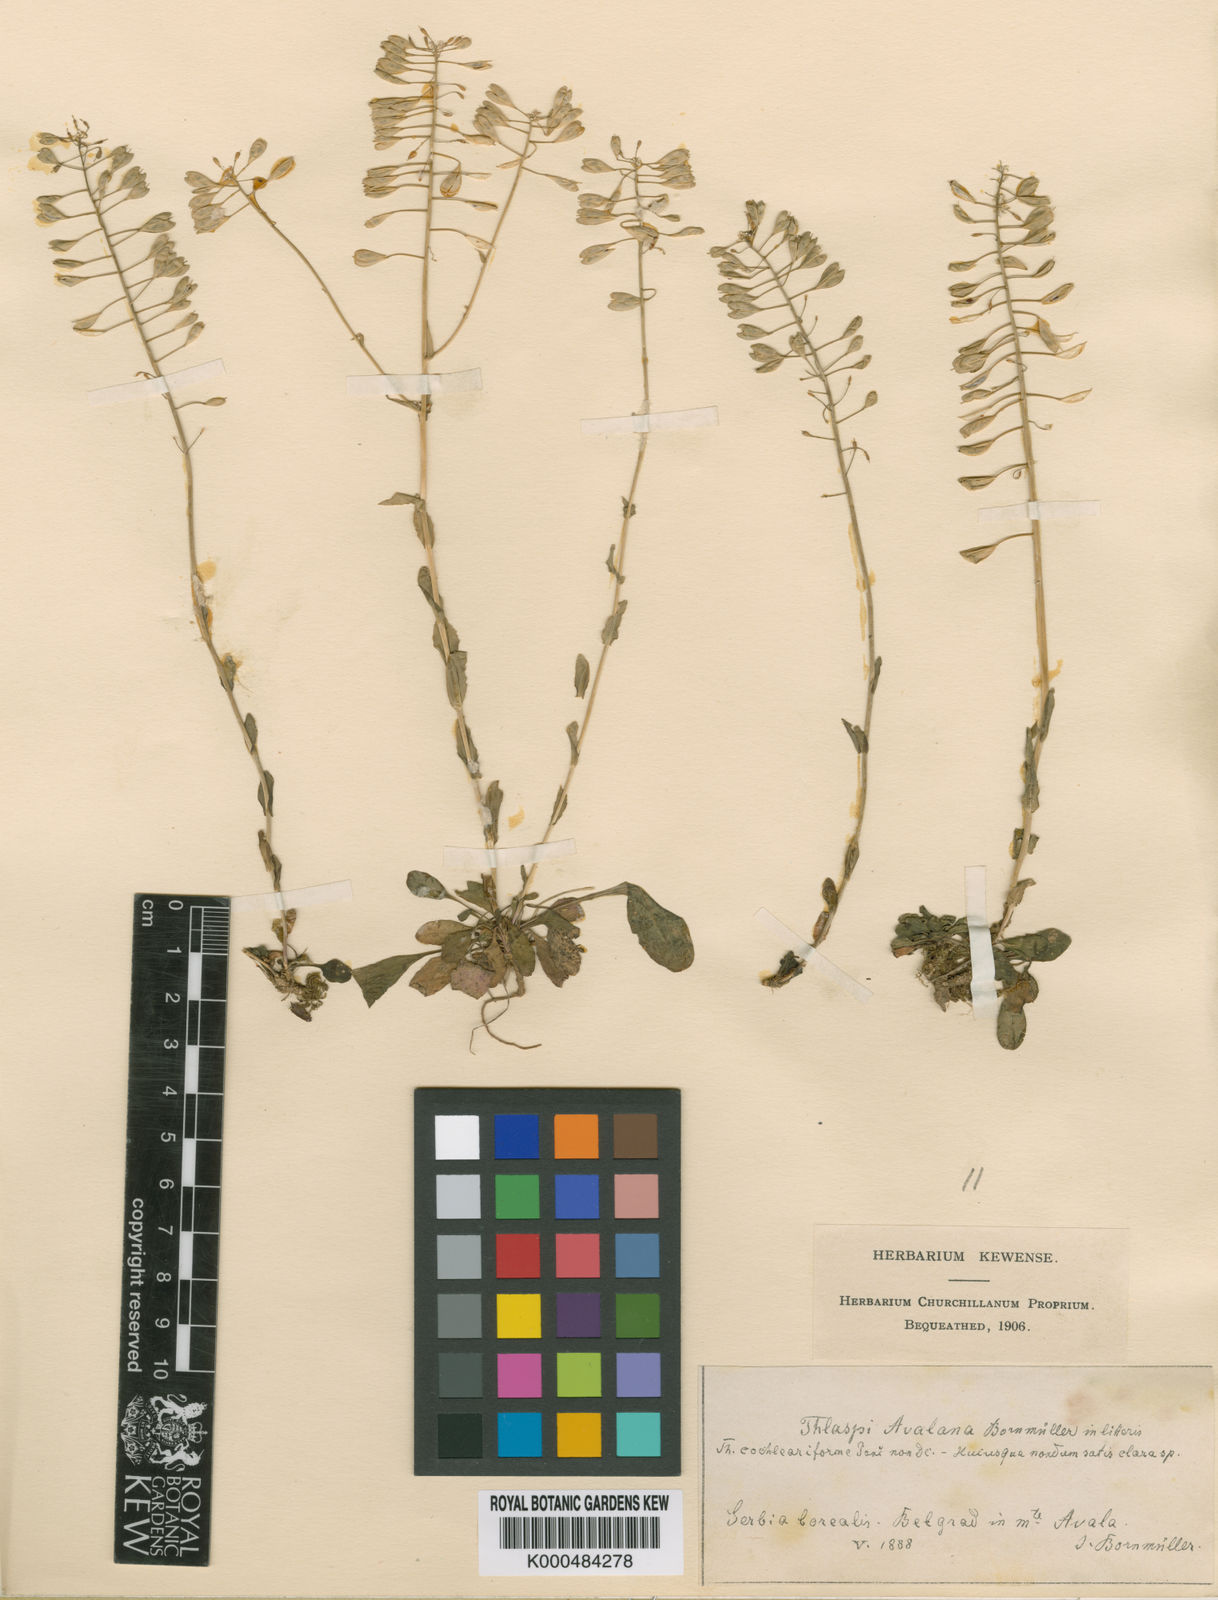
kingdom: Plantae
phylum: Tracheophyta
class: Magnoliopsida
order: Brassicales
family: Brassicaceae
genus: Thlaspi
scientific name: Thlaspi
